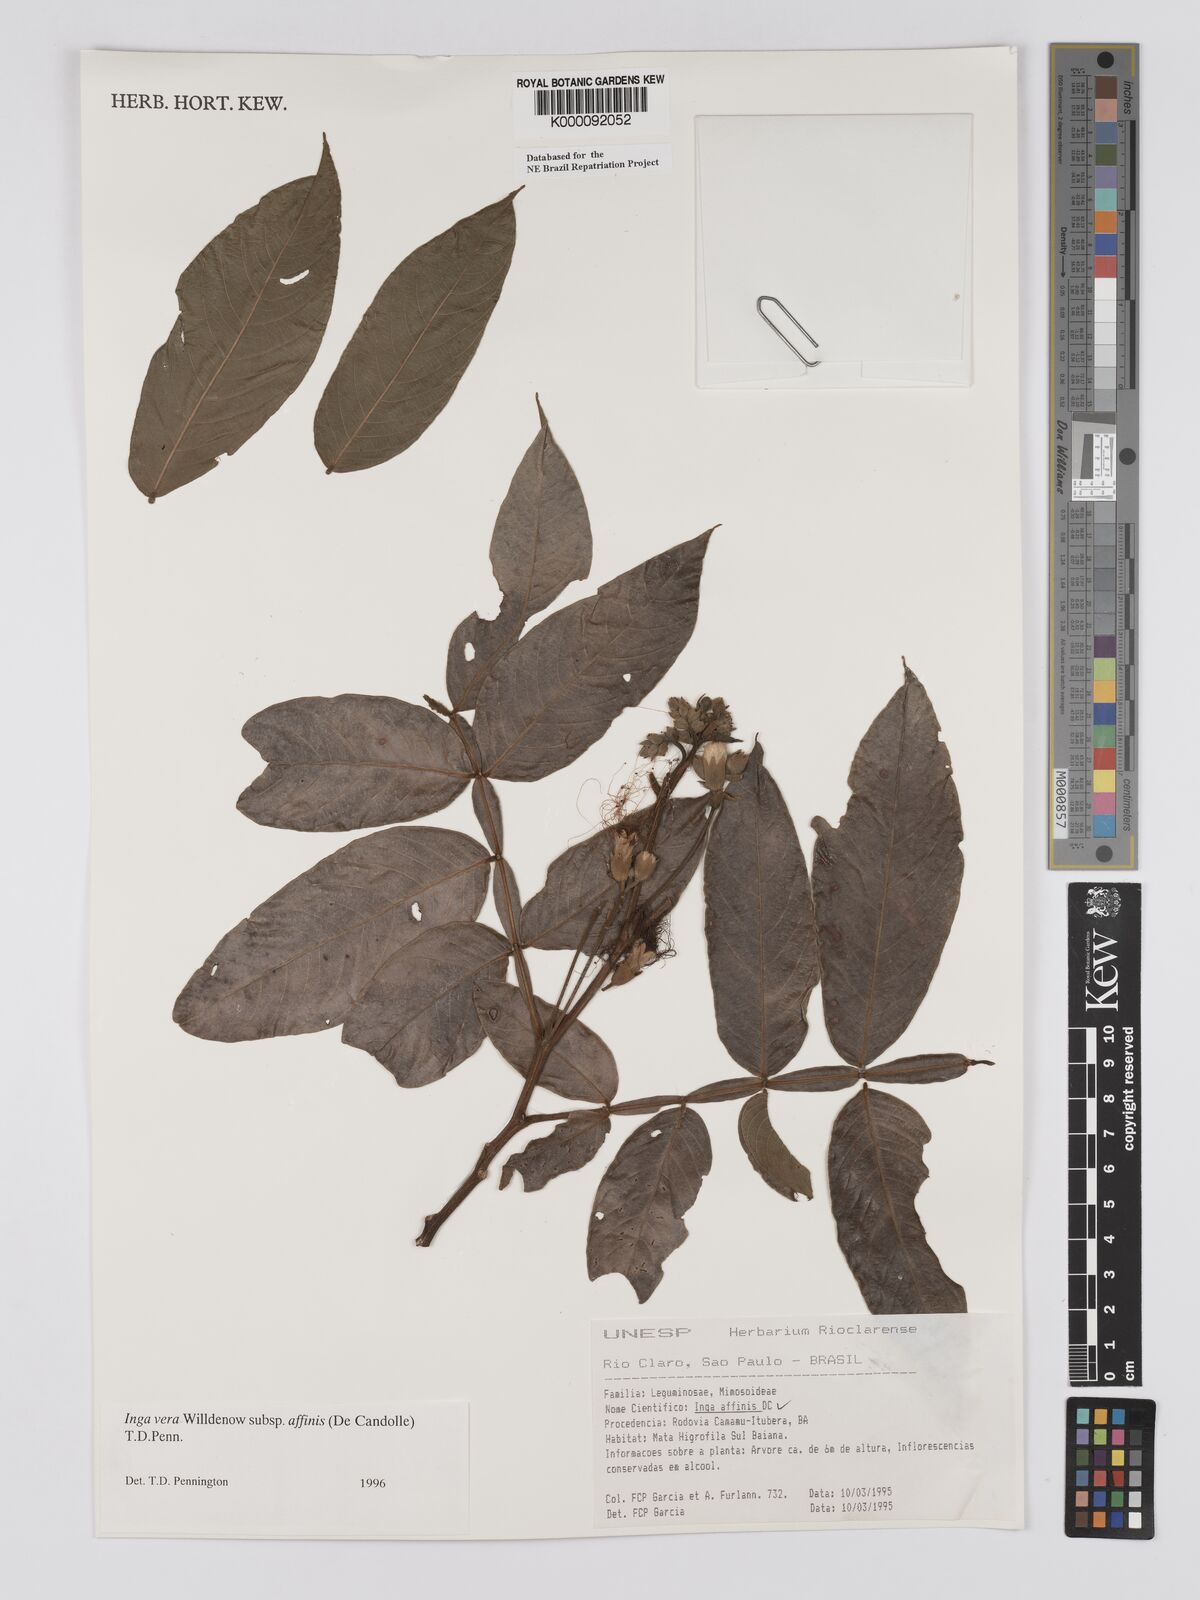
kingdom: Plantae
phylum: Tracheophyta
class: Magnoliopsida
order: Fabales
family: Fabaceae
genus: Inga
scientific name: Inga affinis
